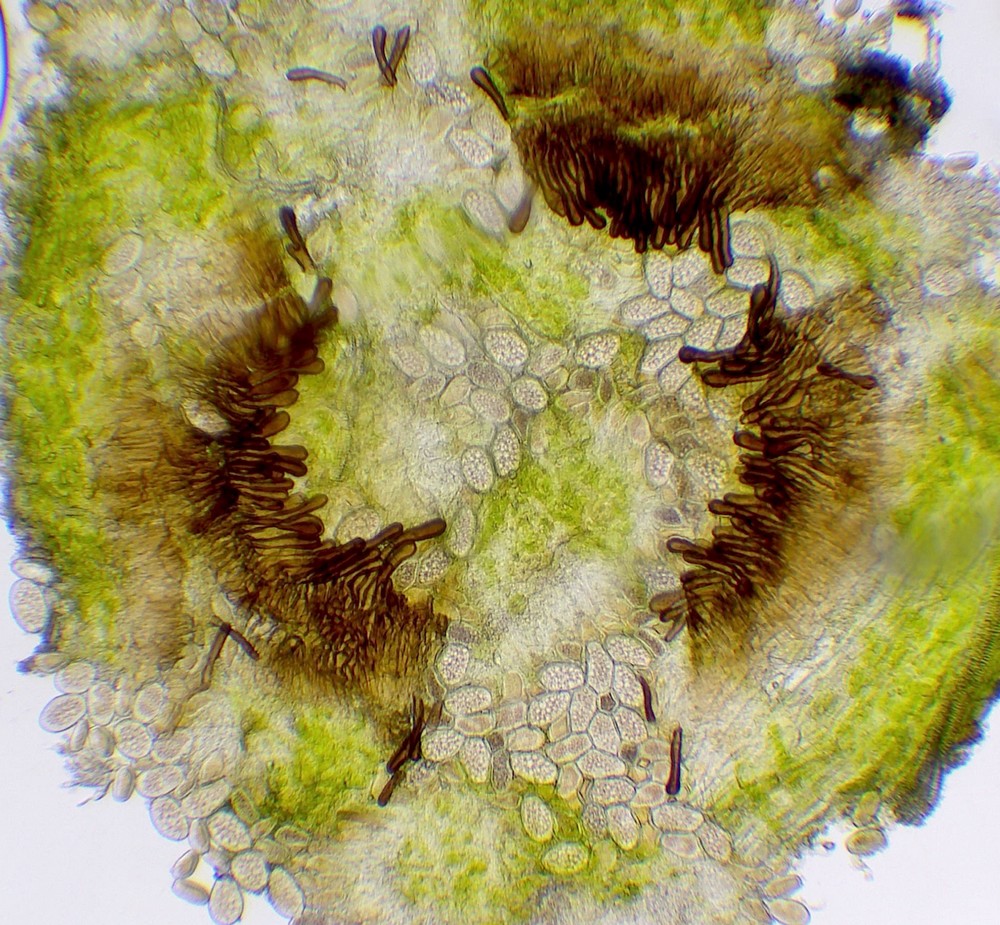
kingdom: Fungi
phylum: Basidiomycota
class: Pucciniomycetes
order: Pucciniales
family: Pucciniaceae
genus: Peristemma
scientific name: Peristemma pseudosphaeria
